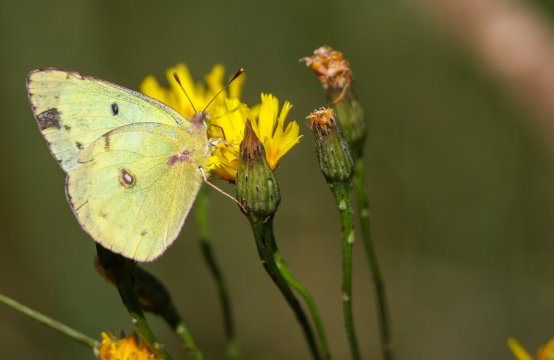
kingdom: Animalia
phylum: Arthropoda
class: Insecta
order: Lepidoptera
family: Pieridae
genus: Colias
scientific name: Colias philodice
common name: Clouded Sulphur
